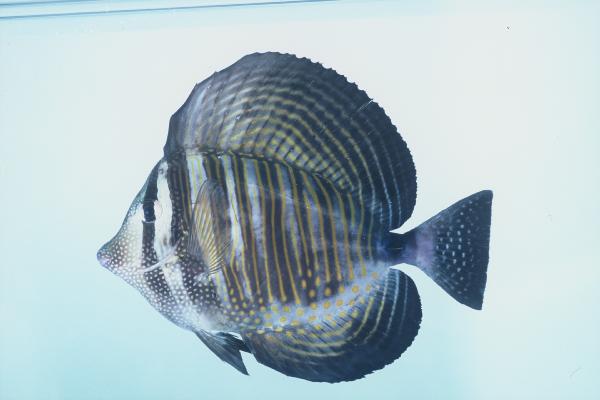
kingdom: Animalia
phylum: Chordata
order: Perciformes
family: Acanthuridae
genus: Zebrasoma
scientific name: Zebrasoma desjardinii
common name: Desjardin's sailfin tang
